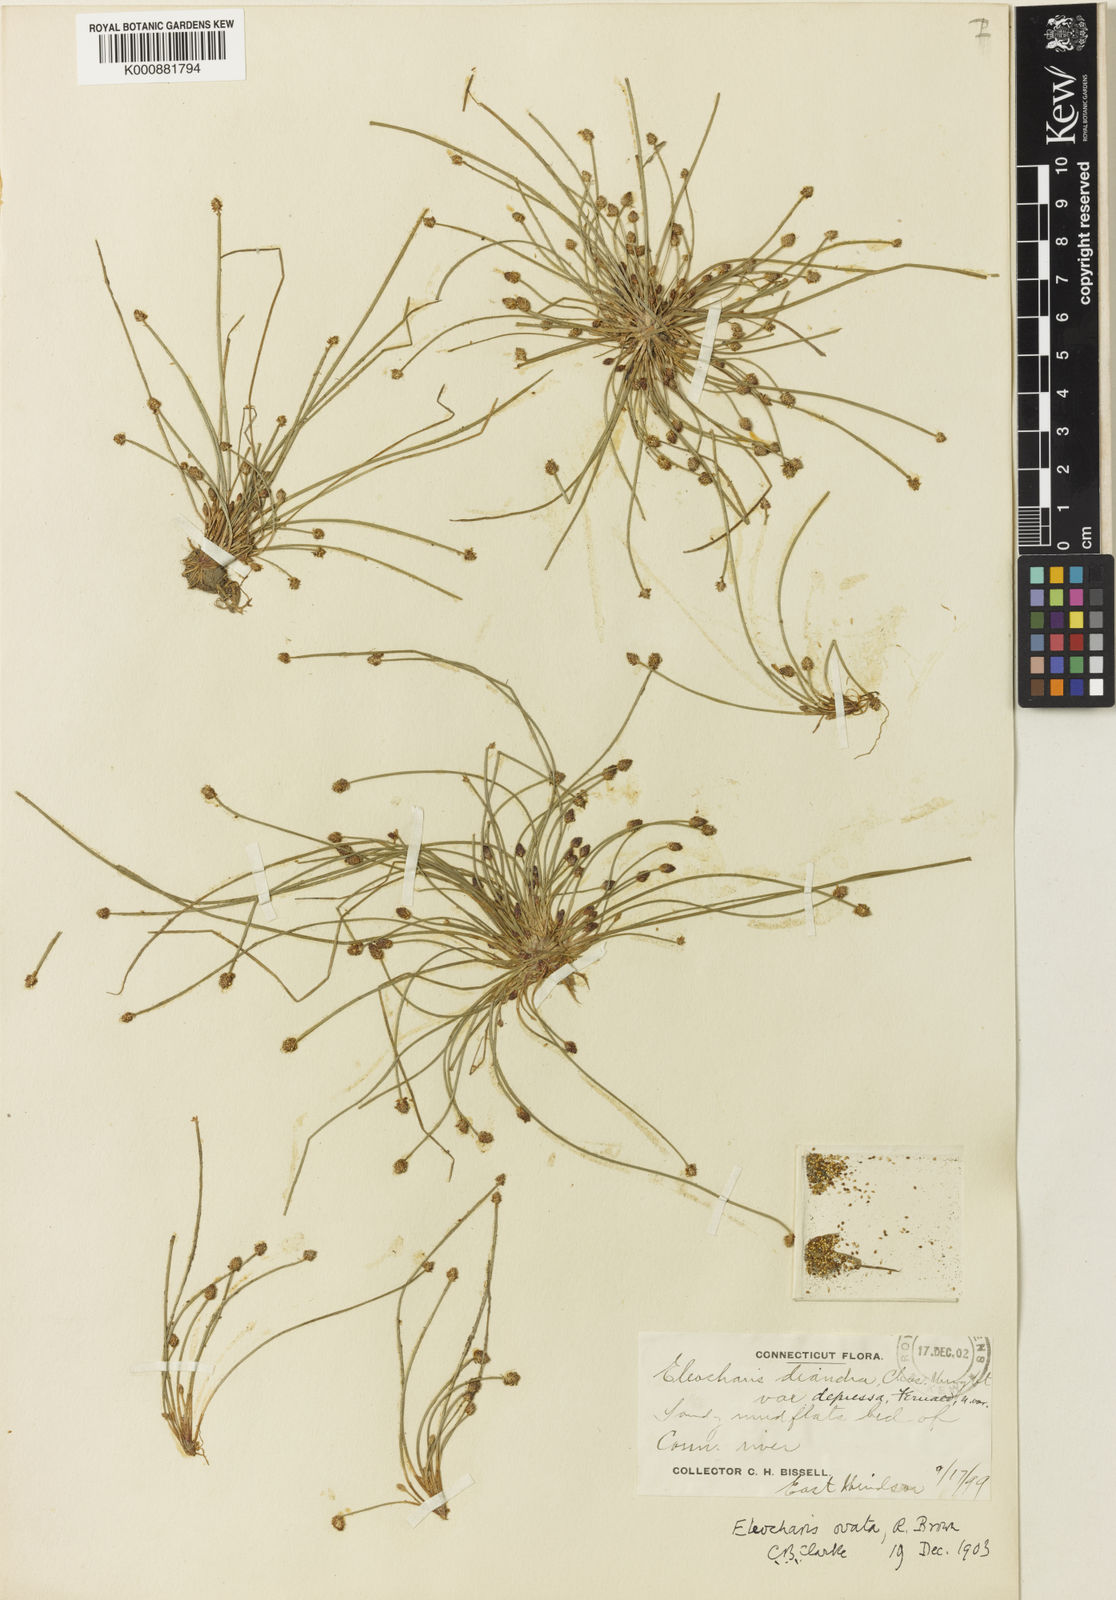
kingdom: Plantae
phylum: Tracheophyta
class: Liliopsida
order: Poales
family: Cyperaceae
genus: Eleocharis
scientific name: Eleocharis
